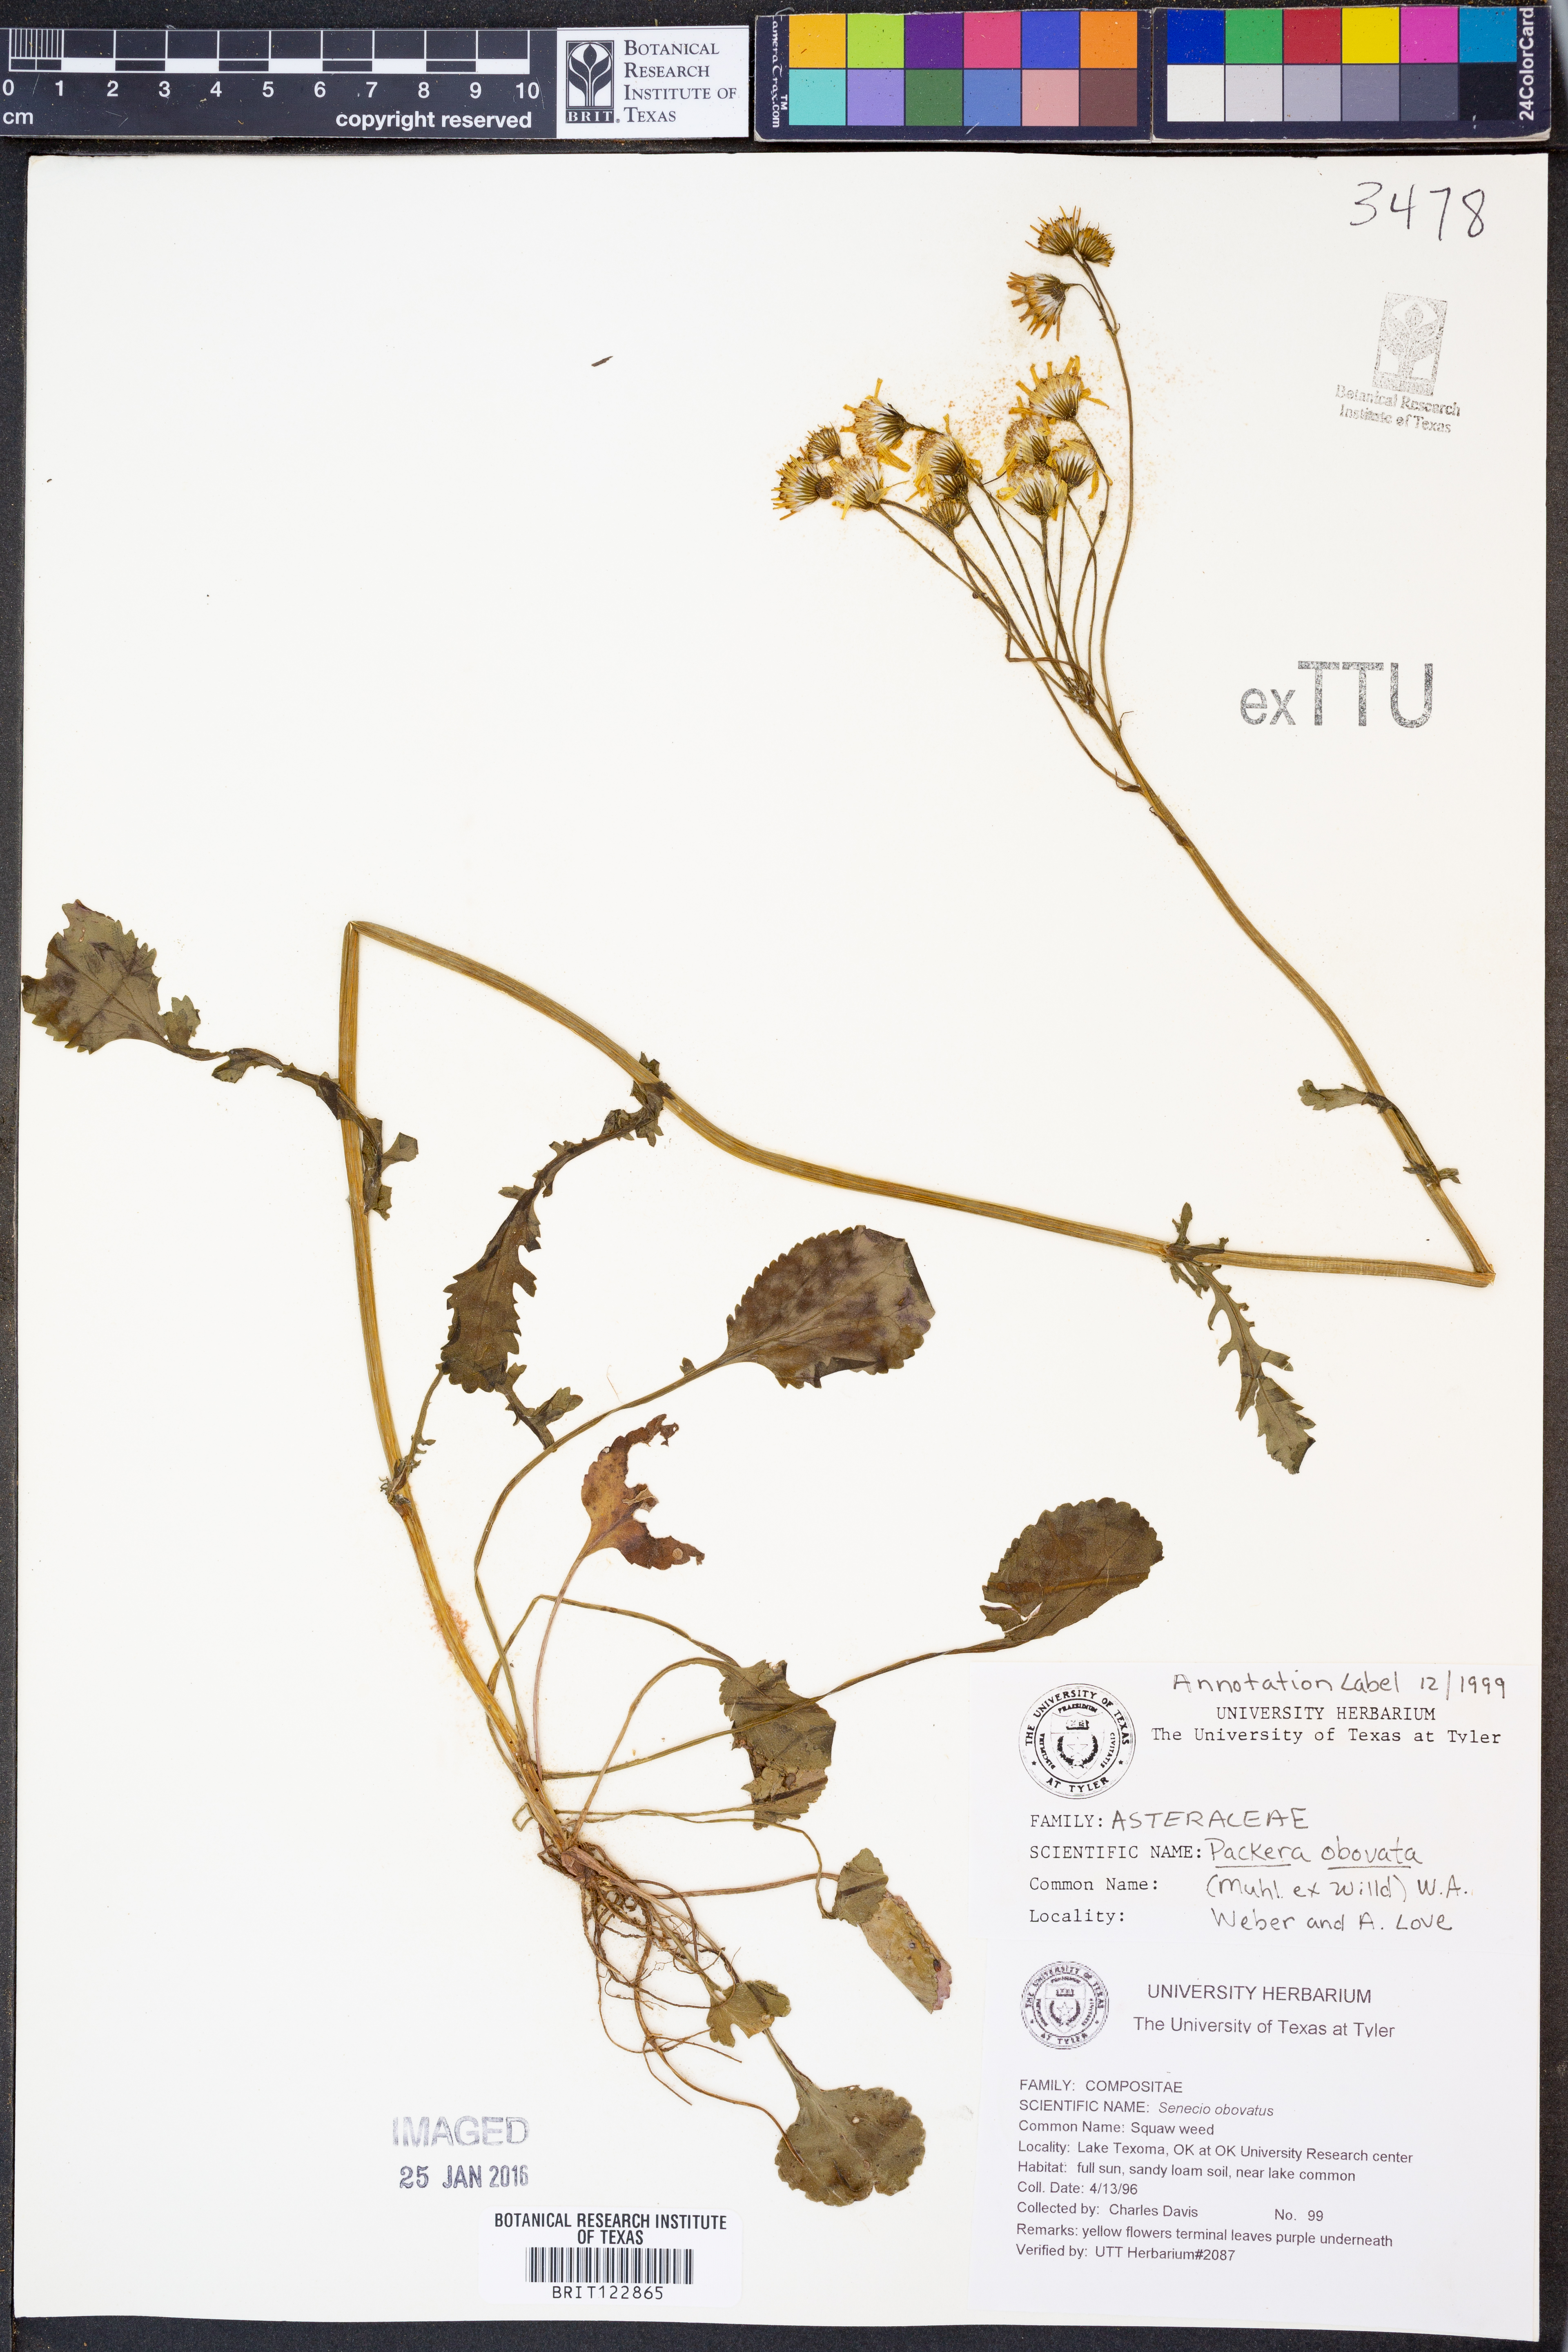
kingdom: Plantae
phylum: Tracheophyta
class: Magnoliopsida
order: Asterales
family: Asteraceae
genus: Packera
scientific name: Packera obovata
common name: Round-leaf ragwort
